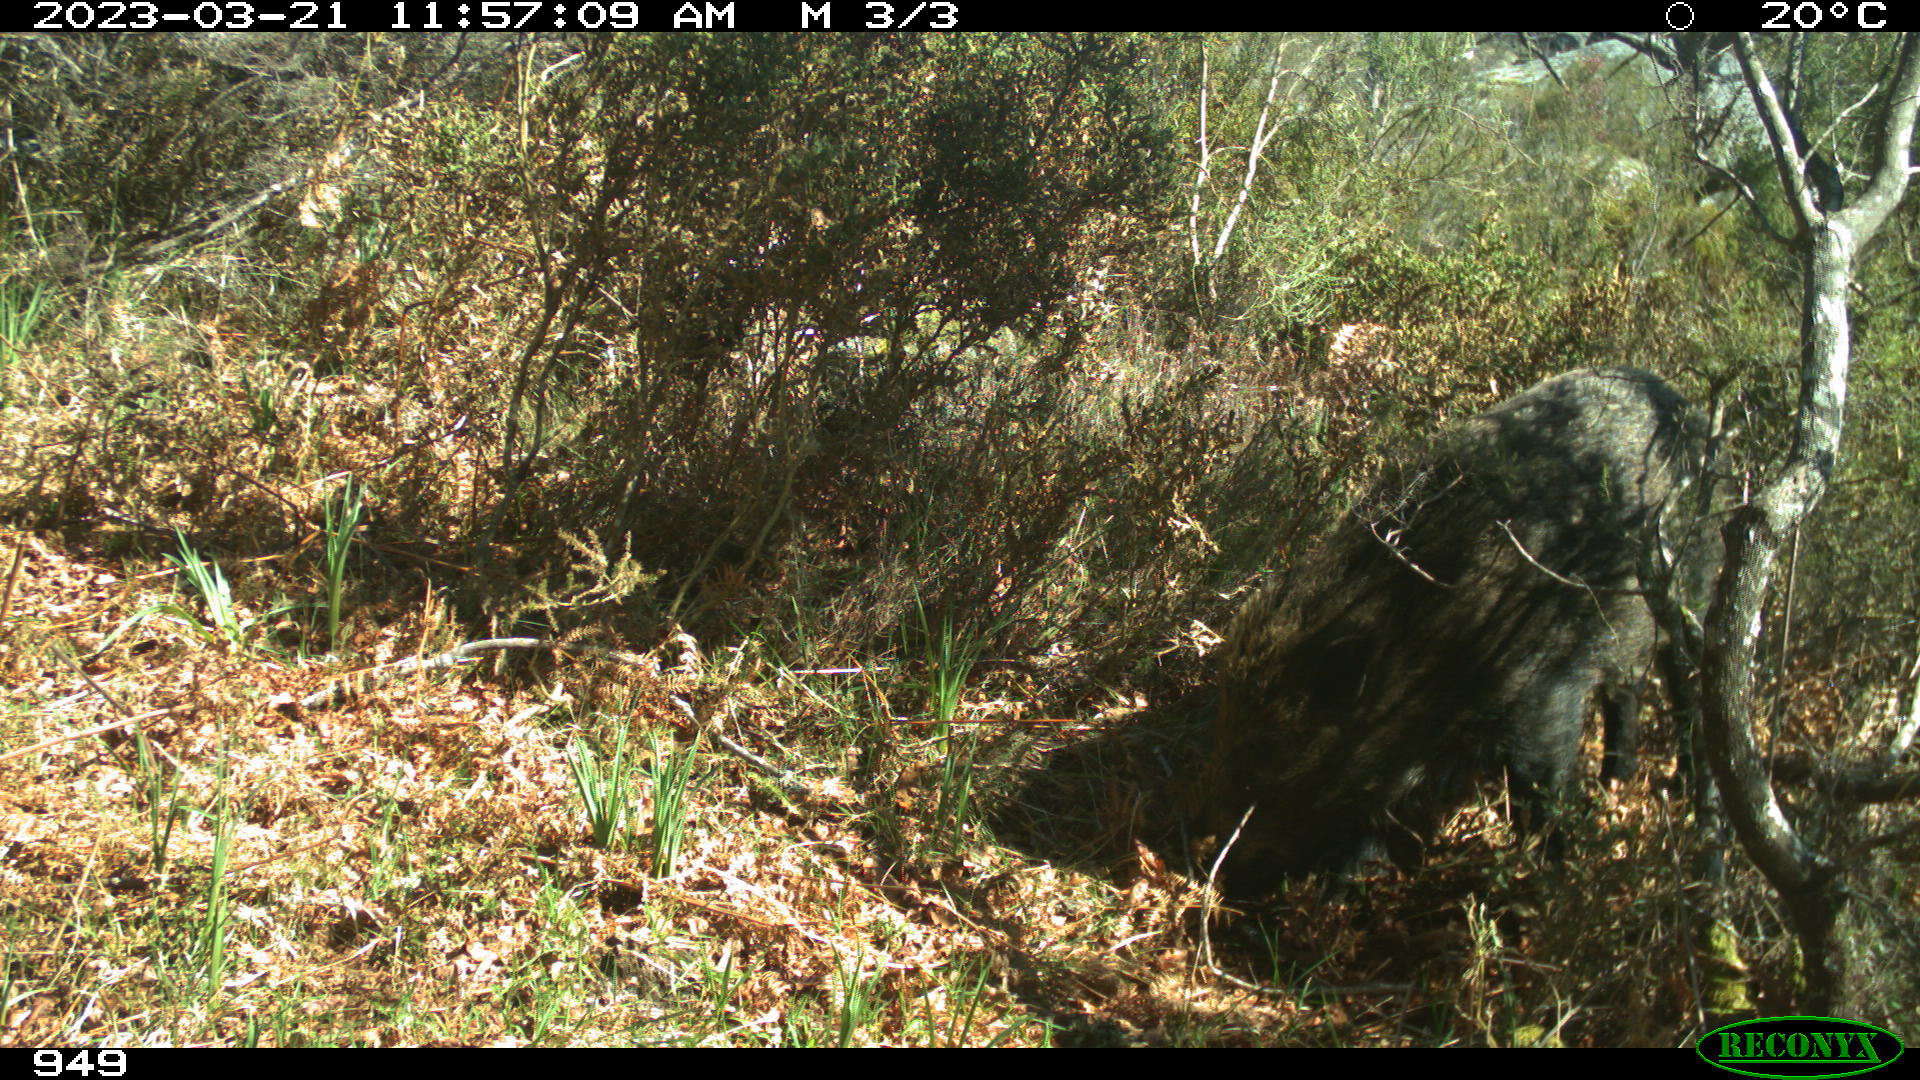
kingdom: Animalia
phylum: Chordata
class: Mammalia
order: Artiodactyla
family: Suidae
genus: Sus
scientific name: Sus scrofa
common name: Wild boar
